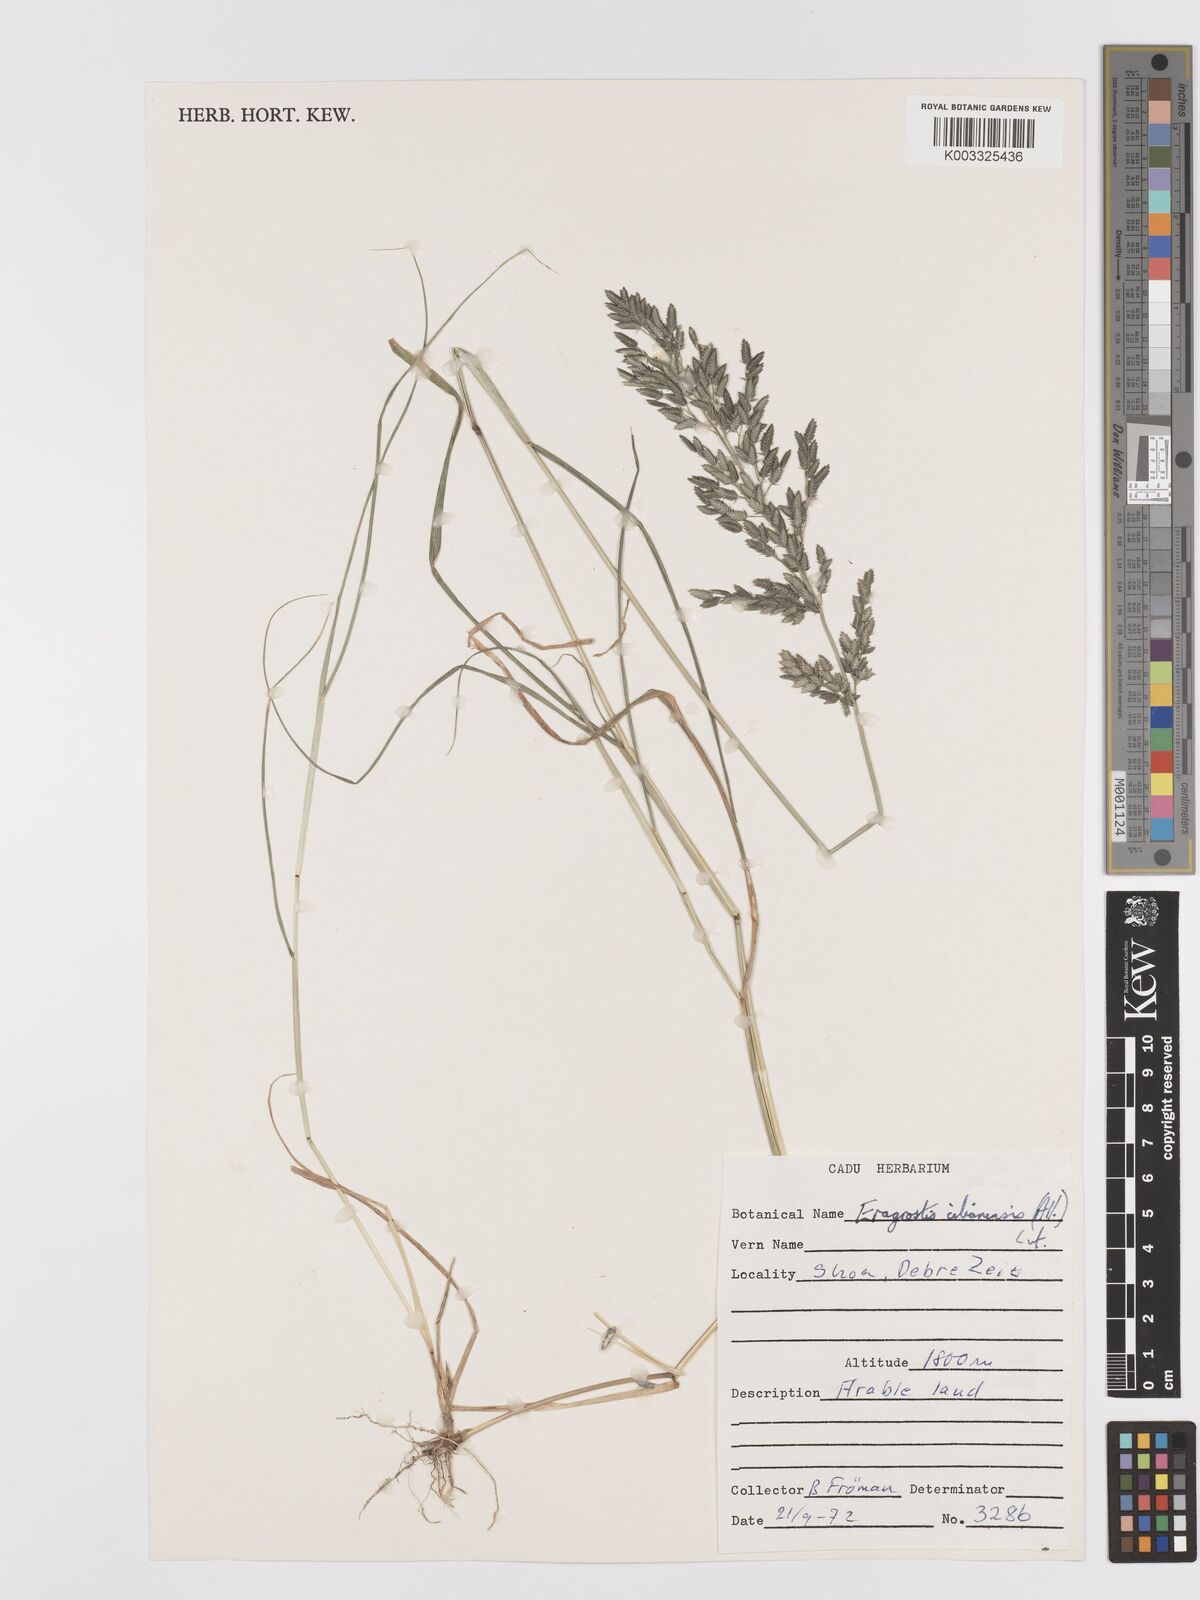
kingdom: Plantae
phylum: Tracheophyta
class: Liliopsida
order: Poales
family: Poaceae
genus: Eragrostis
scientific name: Eragrostis cilianensis
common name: Stinkgrass
